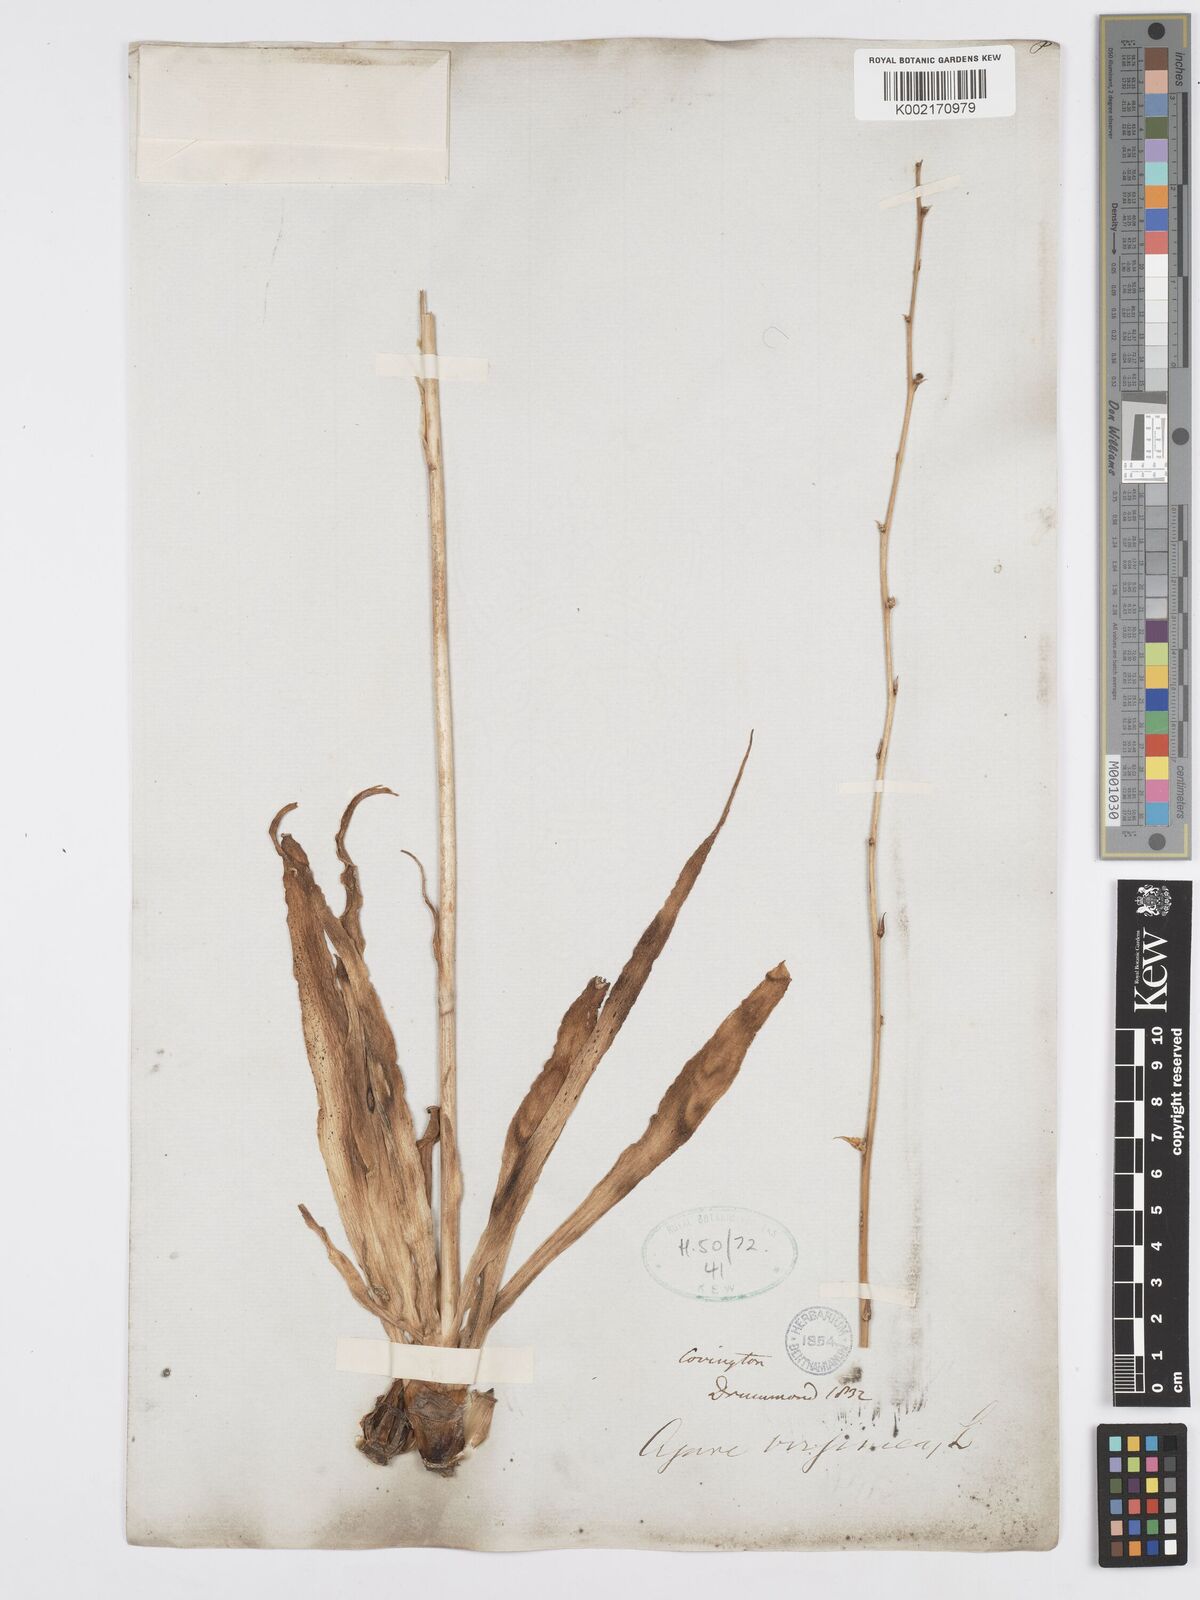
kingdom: Plantae
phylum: Tracheophyta
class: Liliopsida
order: Asparagales
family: Asparagaceae
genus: Agave
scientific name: Agave virginica
